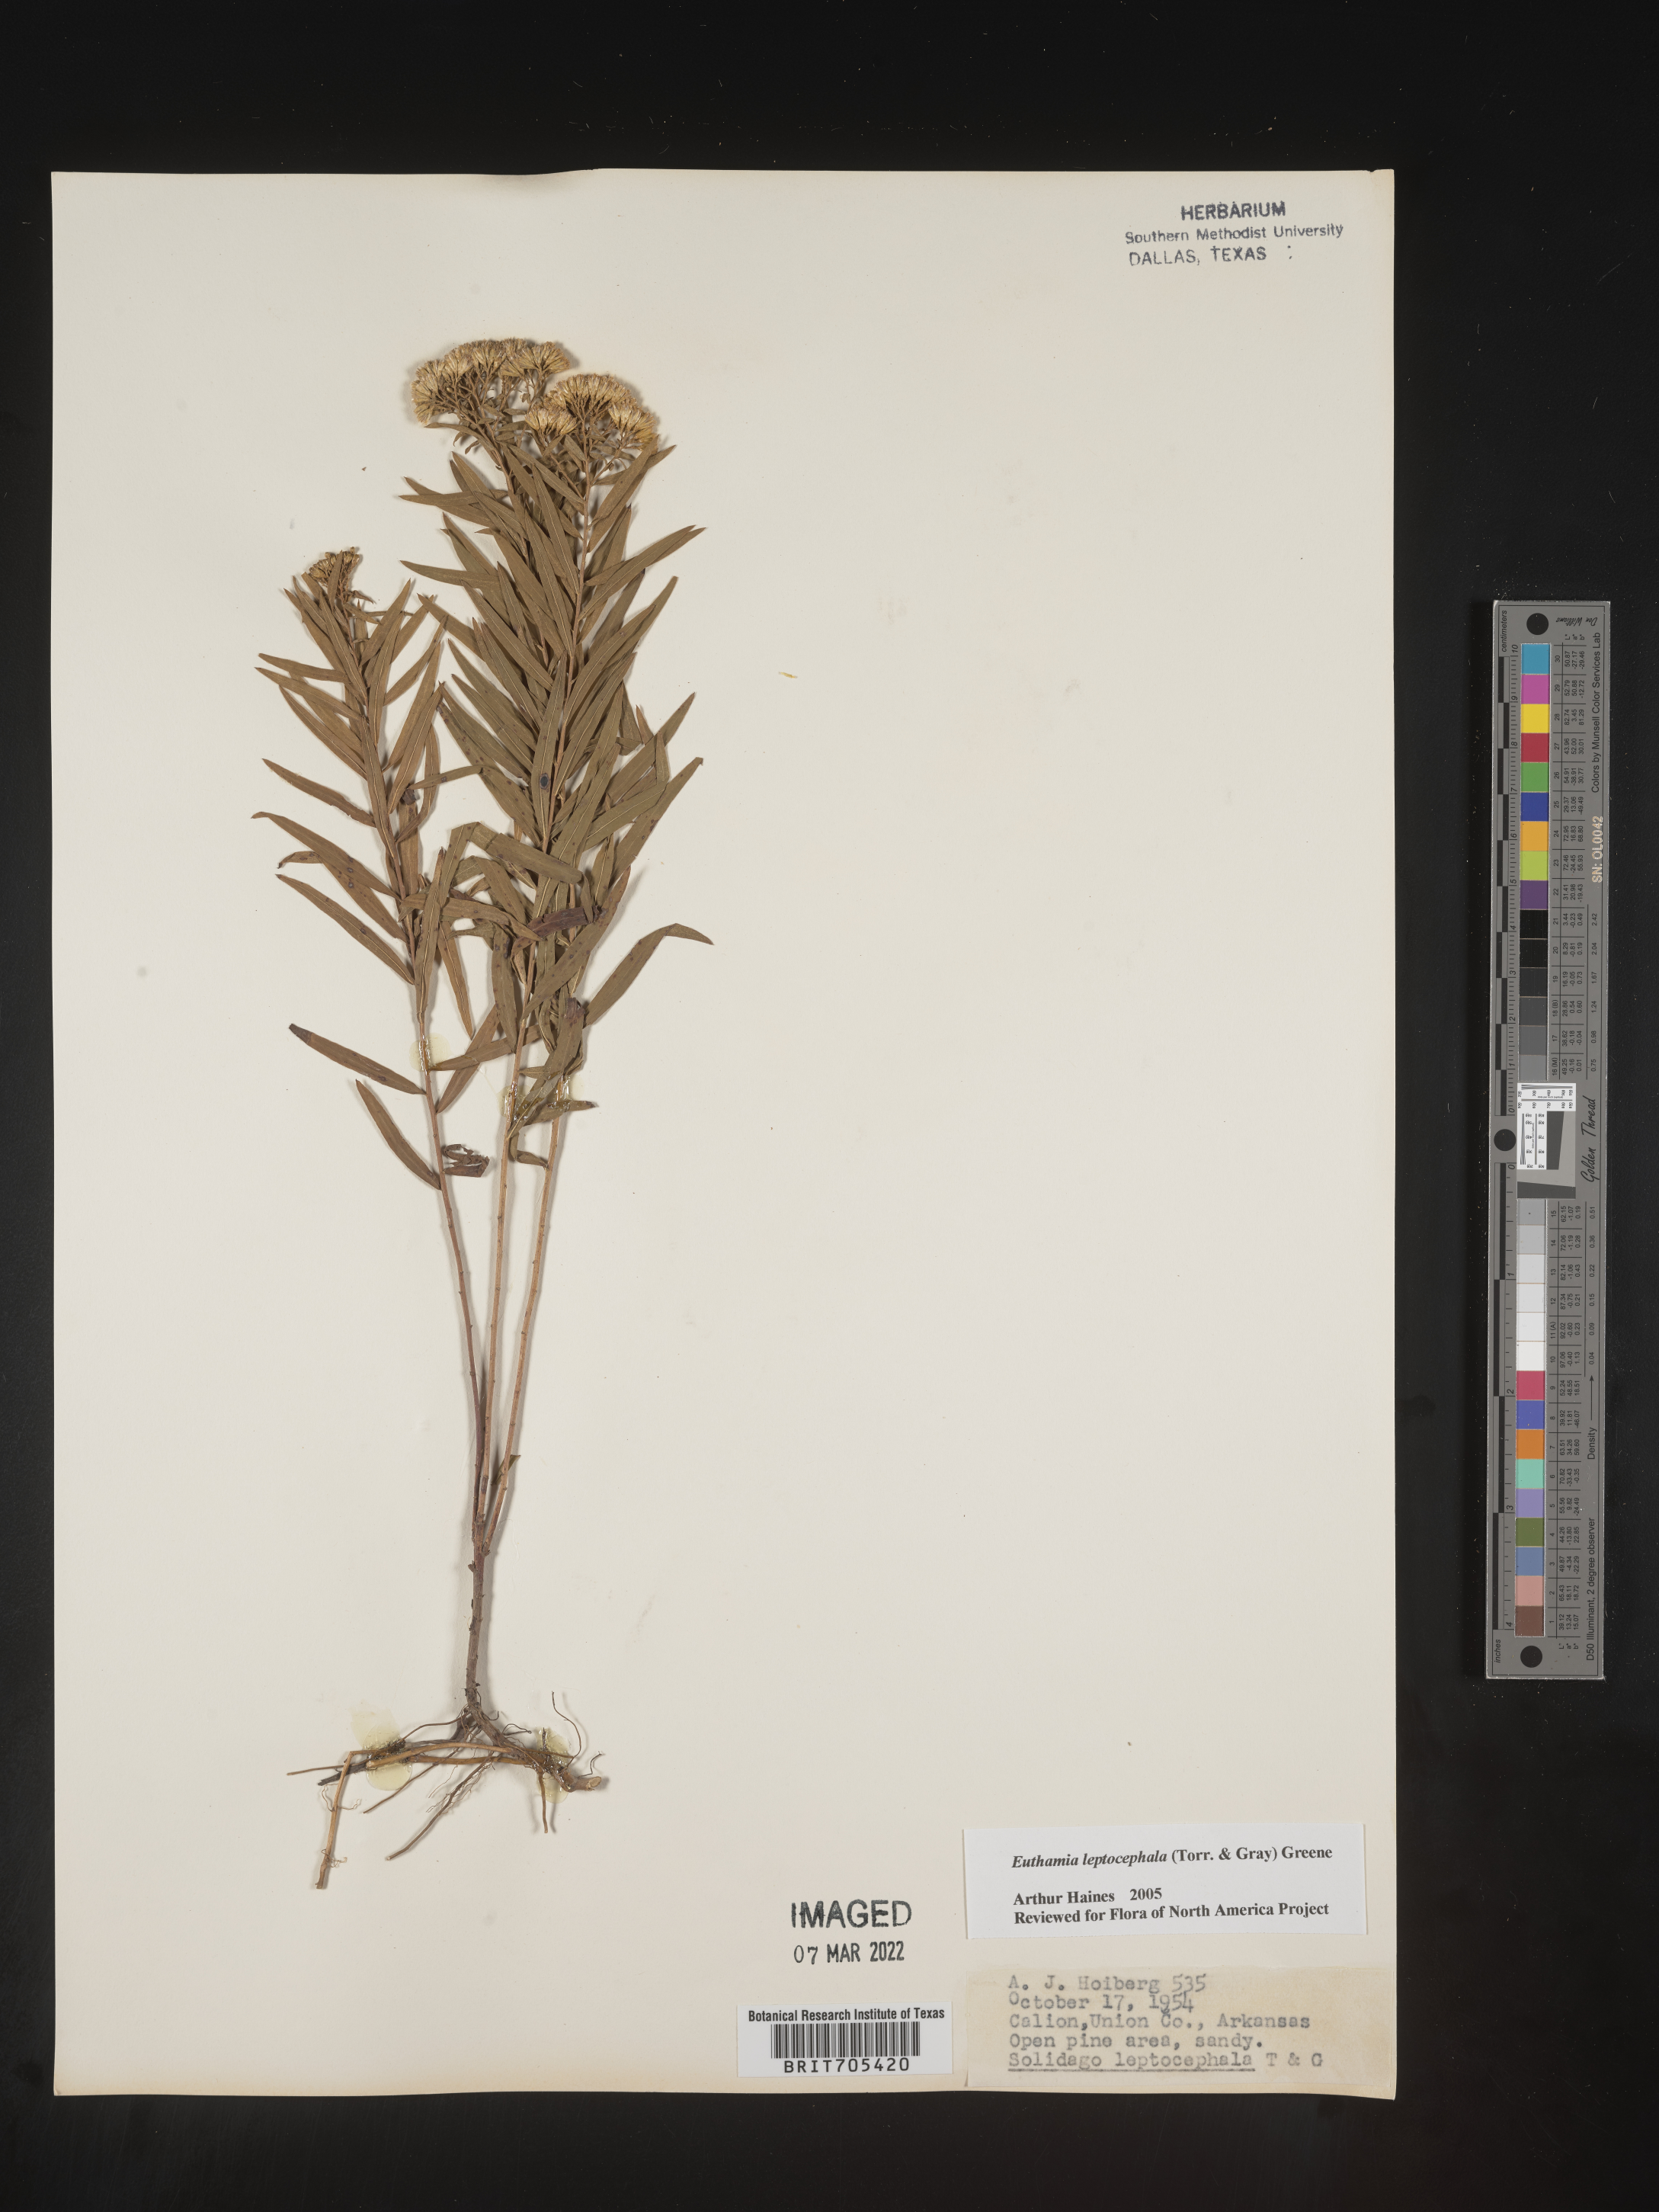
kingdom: Plantae
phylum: Tracheophyta
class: Magnoliopsida
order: Asterales
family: Asteraceae
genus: Euthamia
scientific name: Euthamia leptocephala
